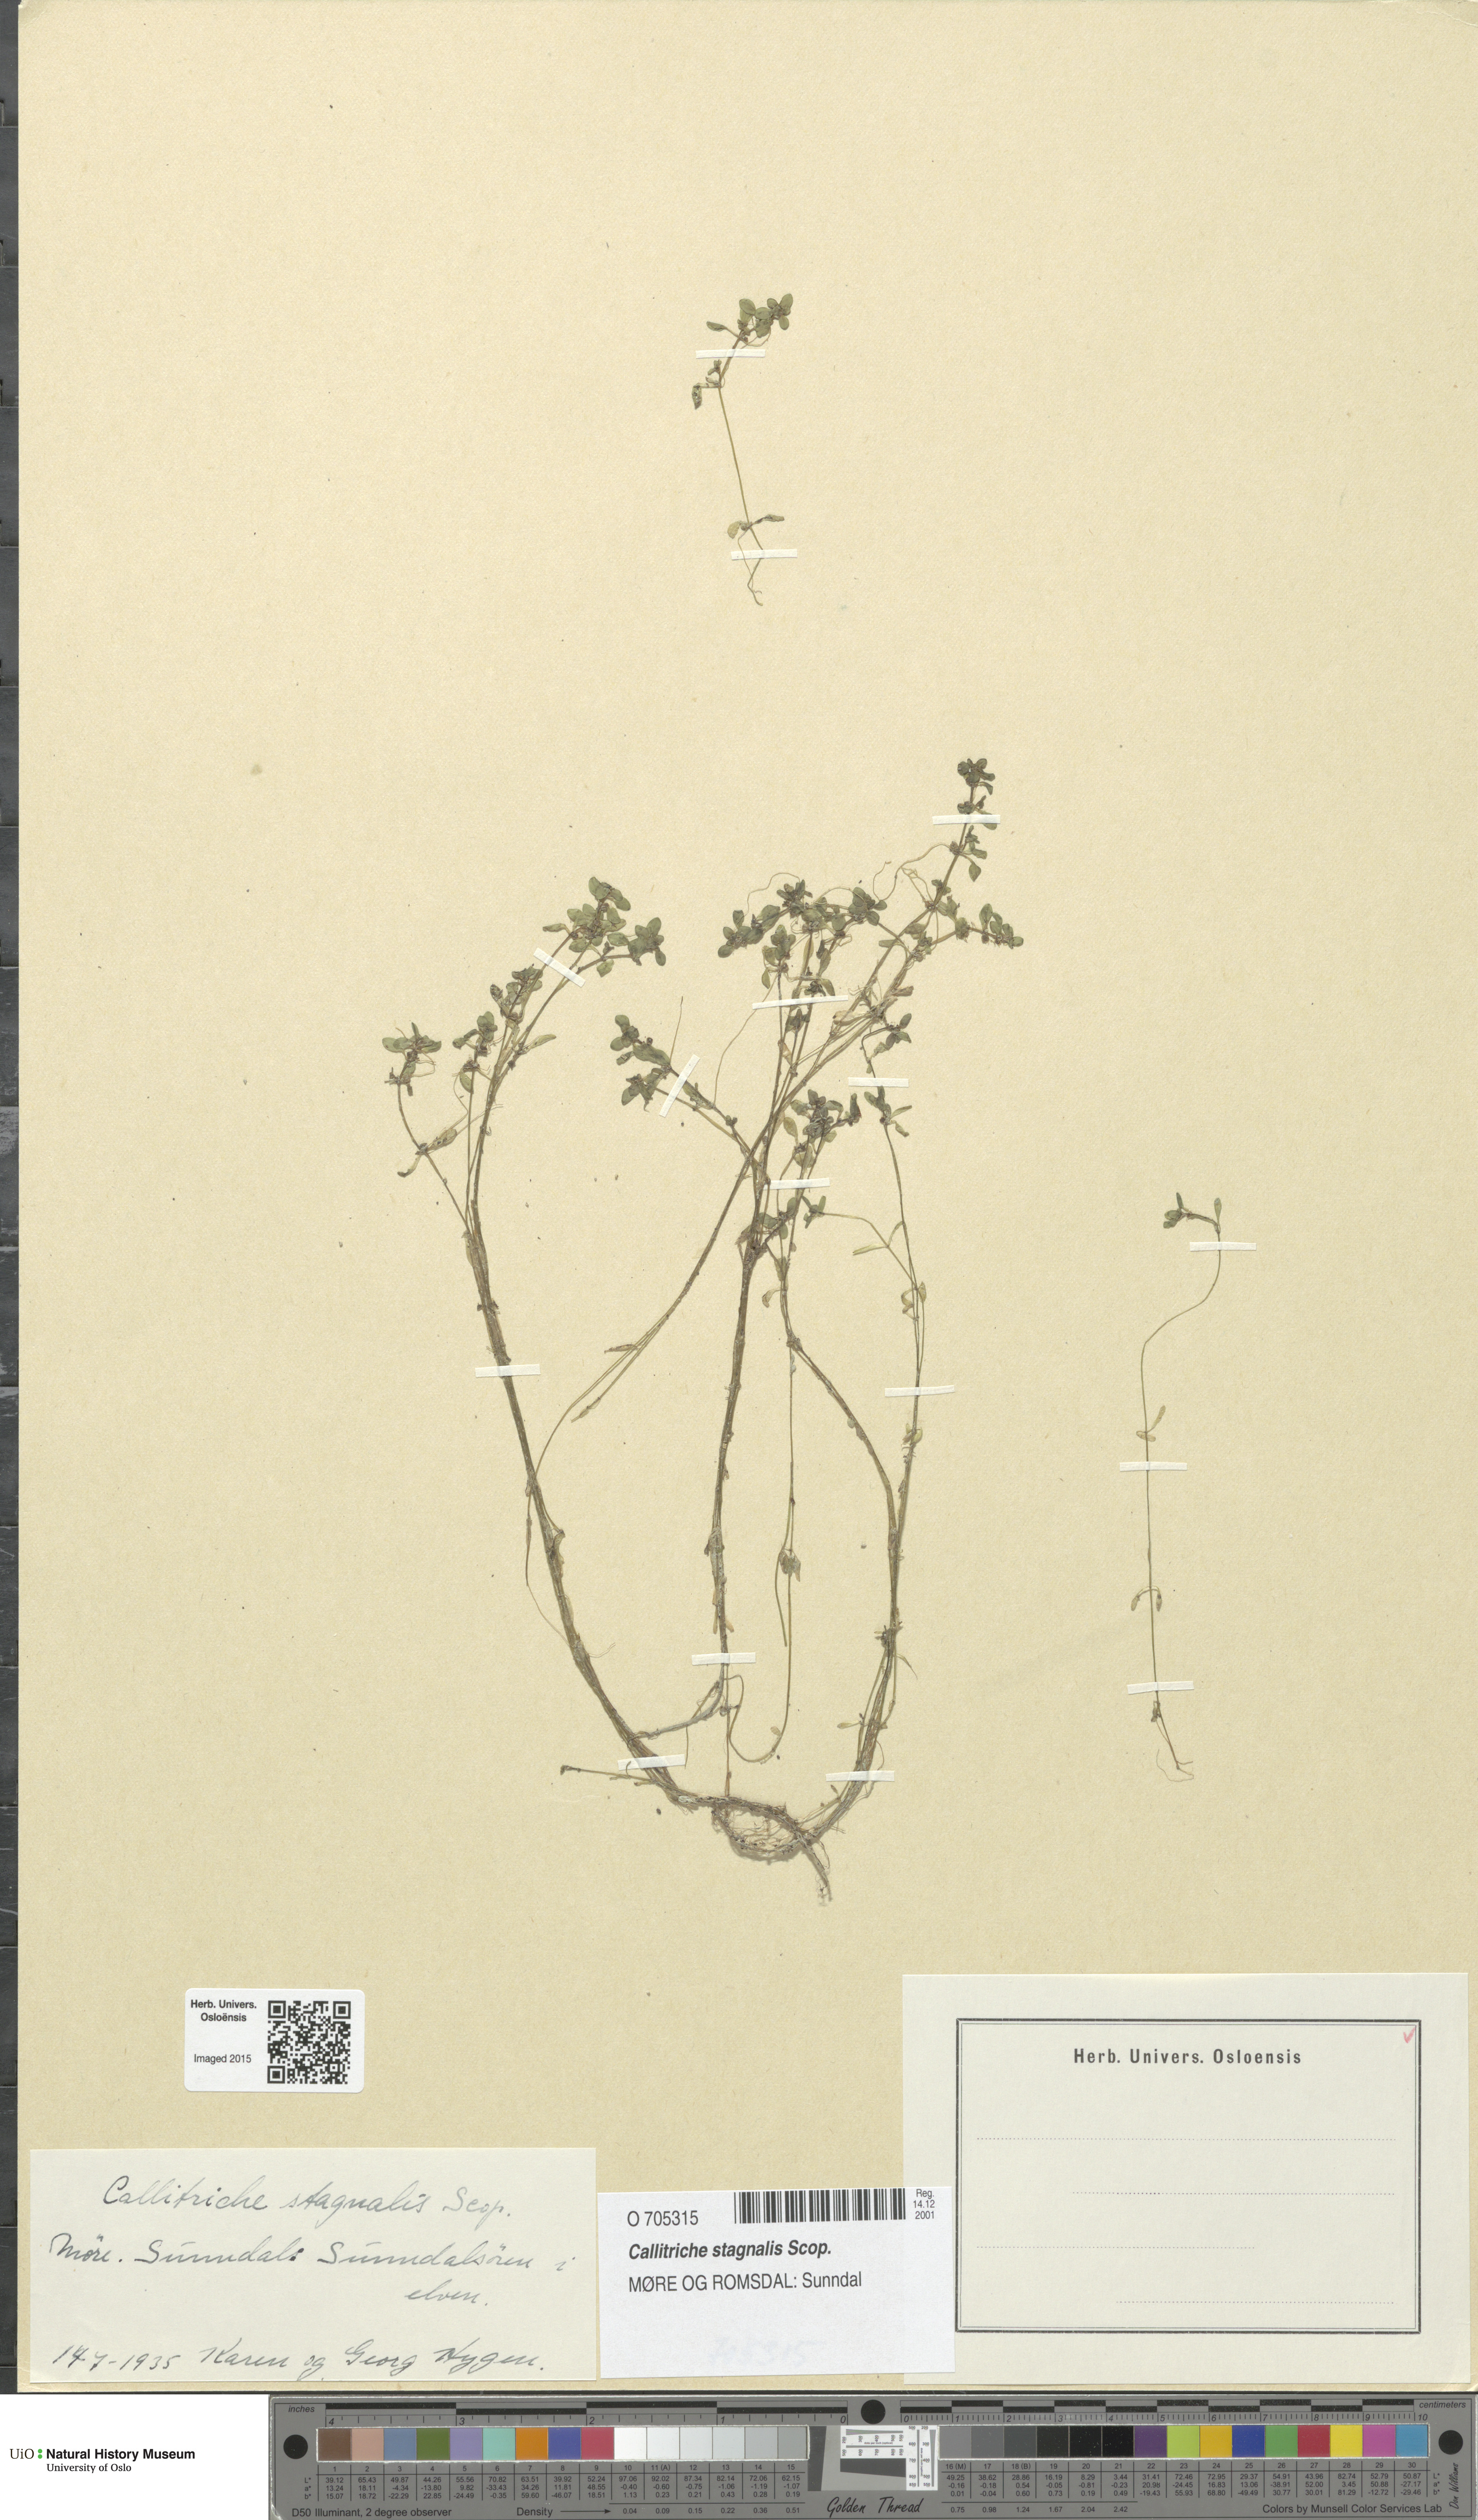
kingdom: Plantae
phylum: Tracheophyta
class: Magnoliopsida
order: Lamiales
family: Plantaginaceae
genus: Callitriche
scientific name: Callitriche stagnalis
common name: Common water-starwort
